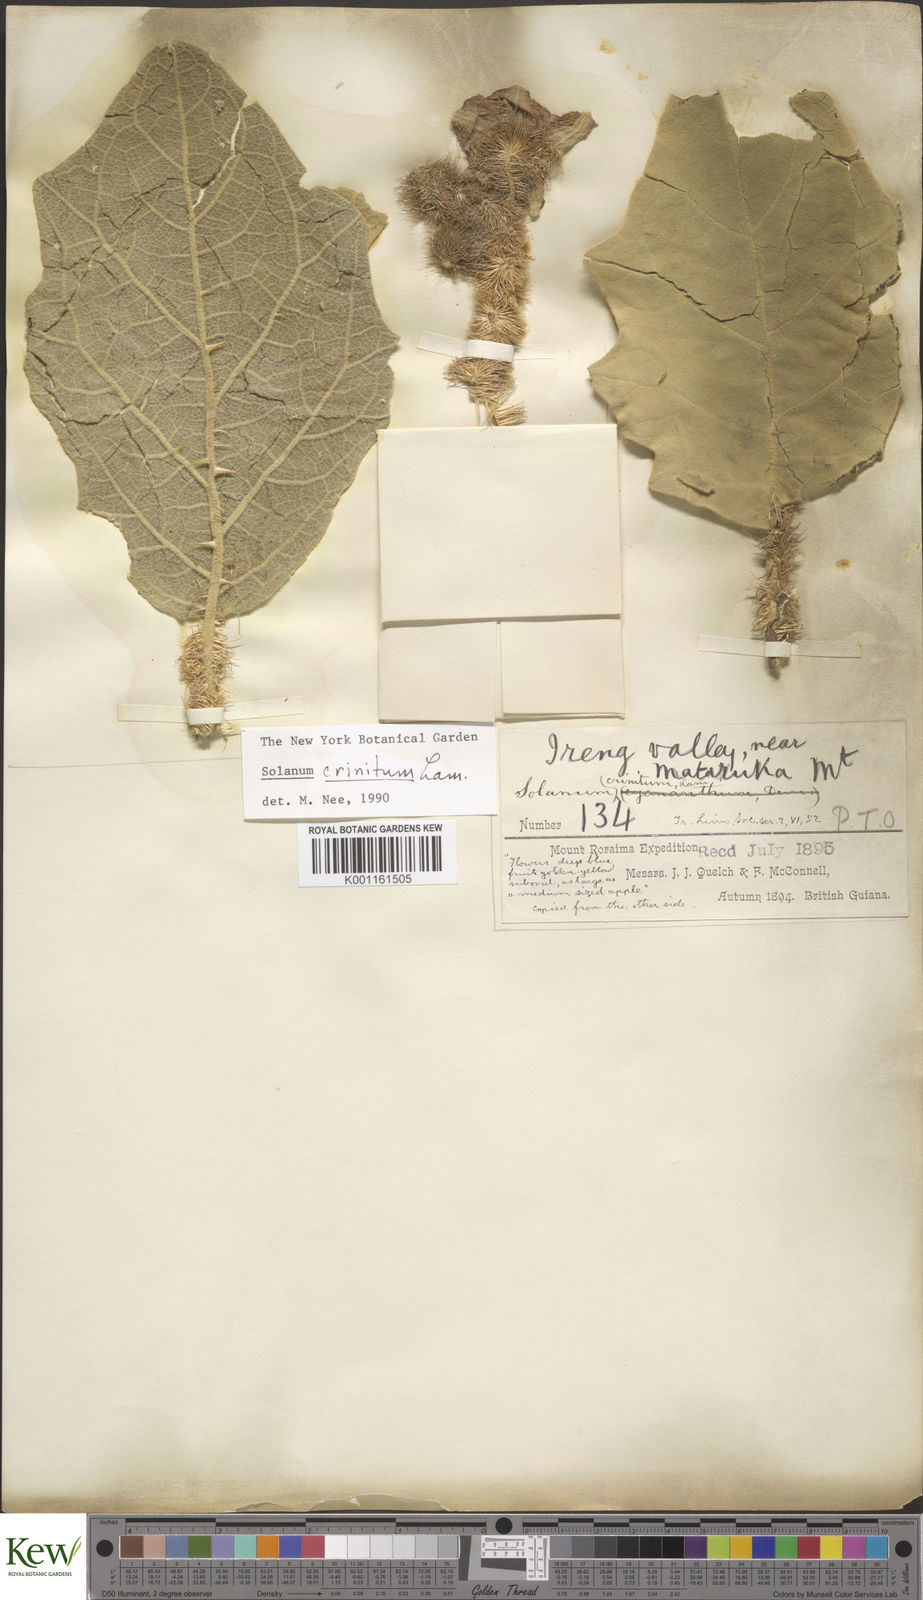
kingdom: Plantae
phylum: Tracheophyta
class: Magnoliopsida
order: Solanales
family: Solanaceae
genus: Solanum
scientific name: Solanum crinitum
